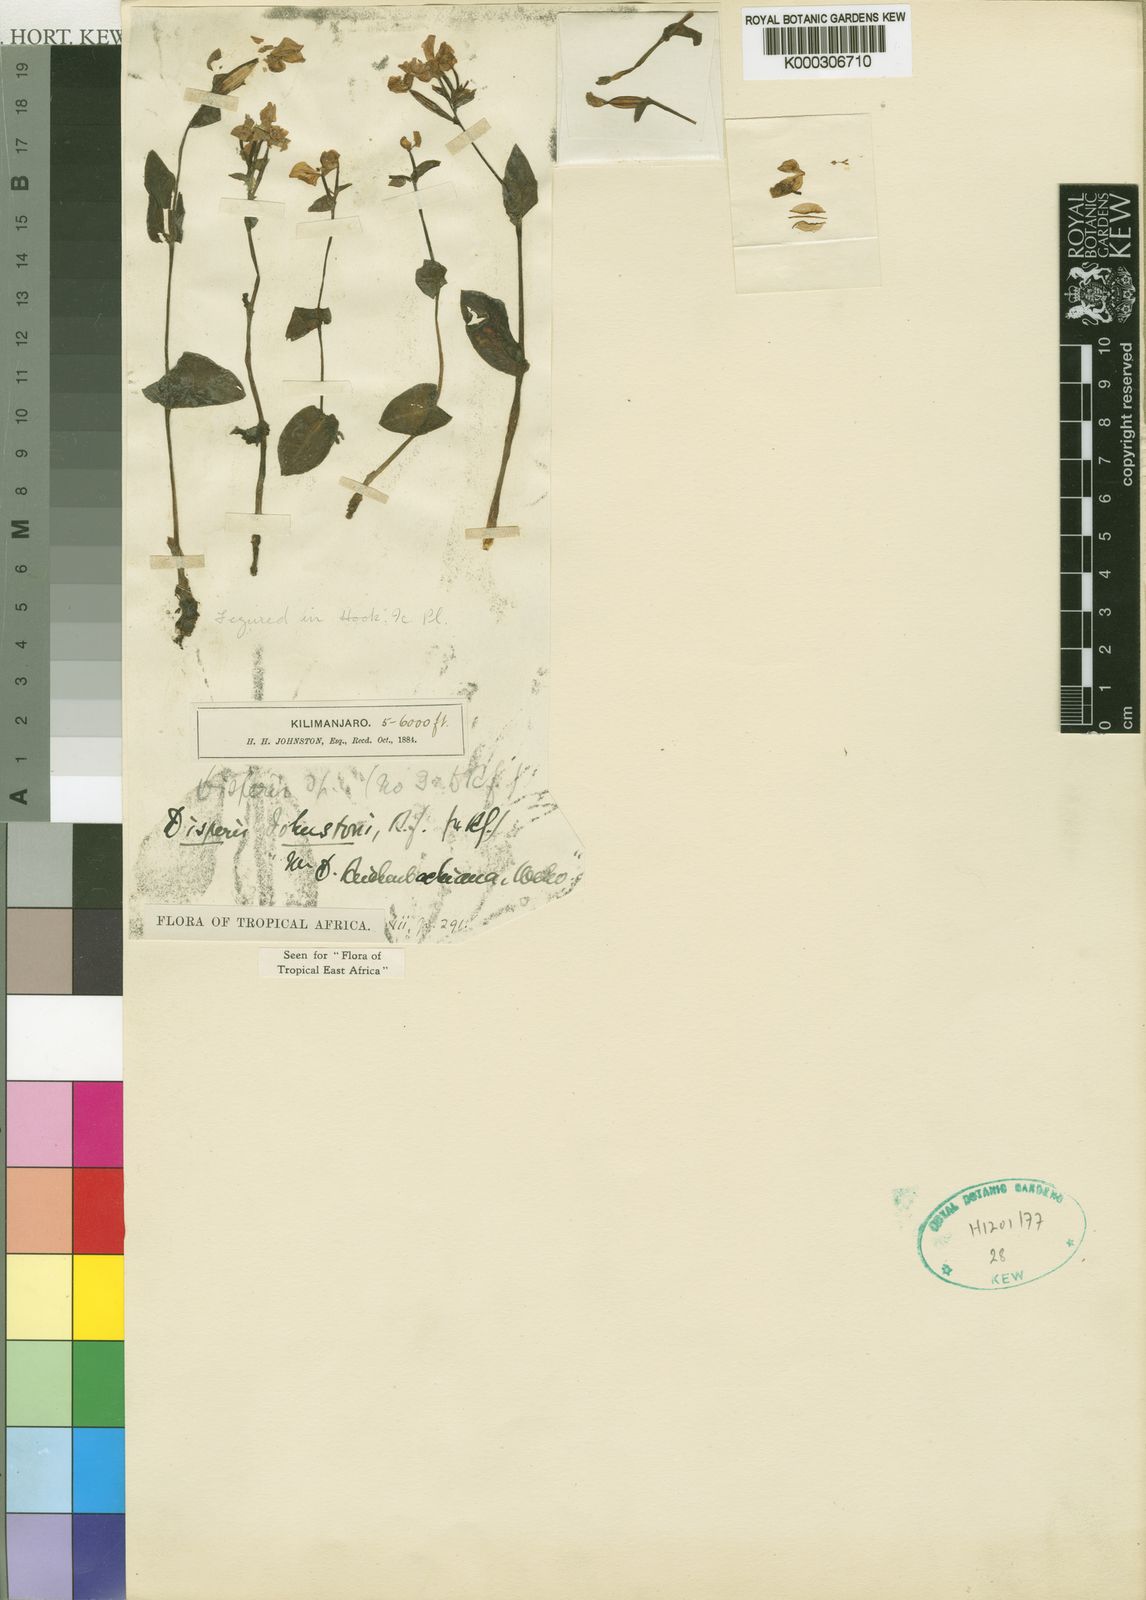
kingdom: Plantae
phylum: Tracheophyta
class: Liliopsida
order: Asparagales
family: Orchidaceae
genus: Disperis
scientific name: Disperis stenoplectron
